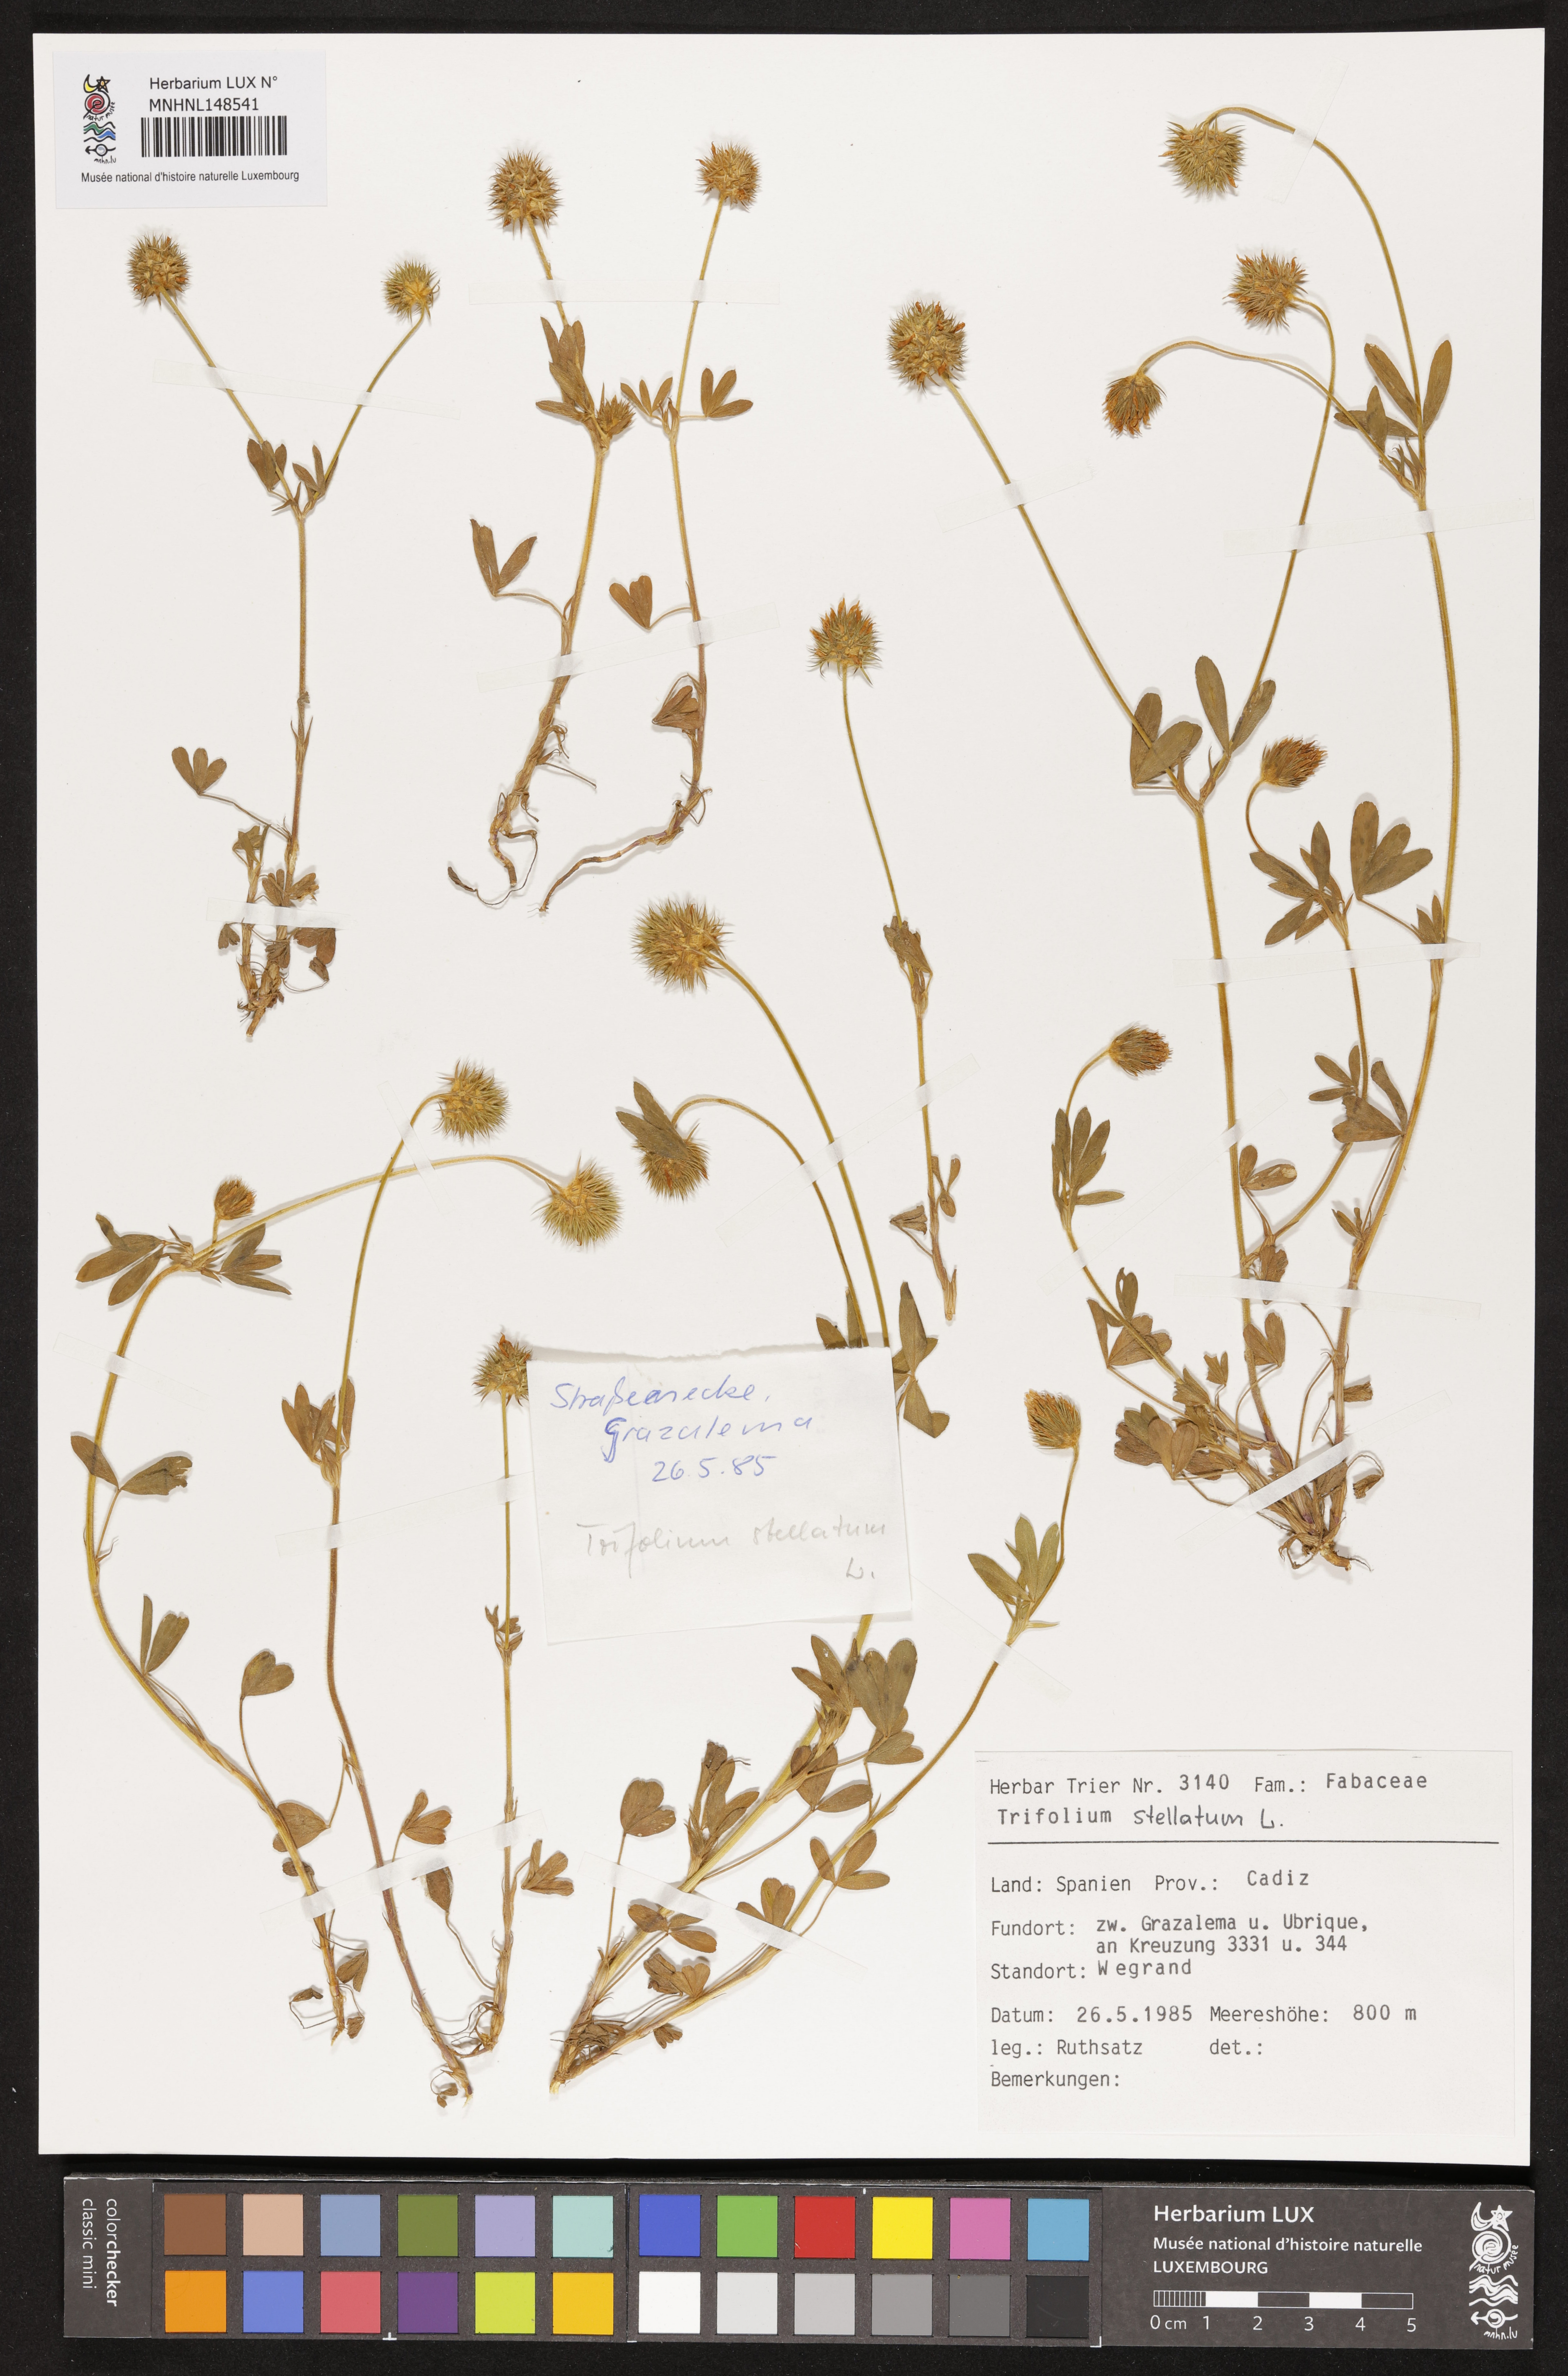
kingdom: Plantae
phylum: Tracheophyta
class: Magnoliopsida
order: Fabales
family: Fabaceae
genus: Trifolium
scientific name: Trifolium stellatum
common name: Starry clover
